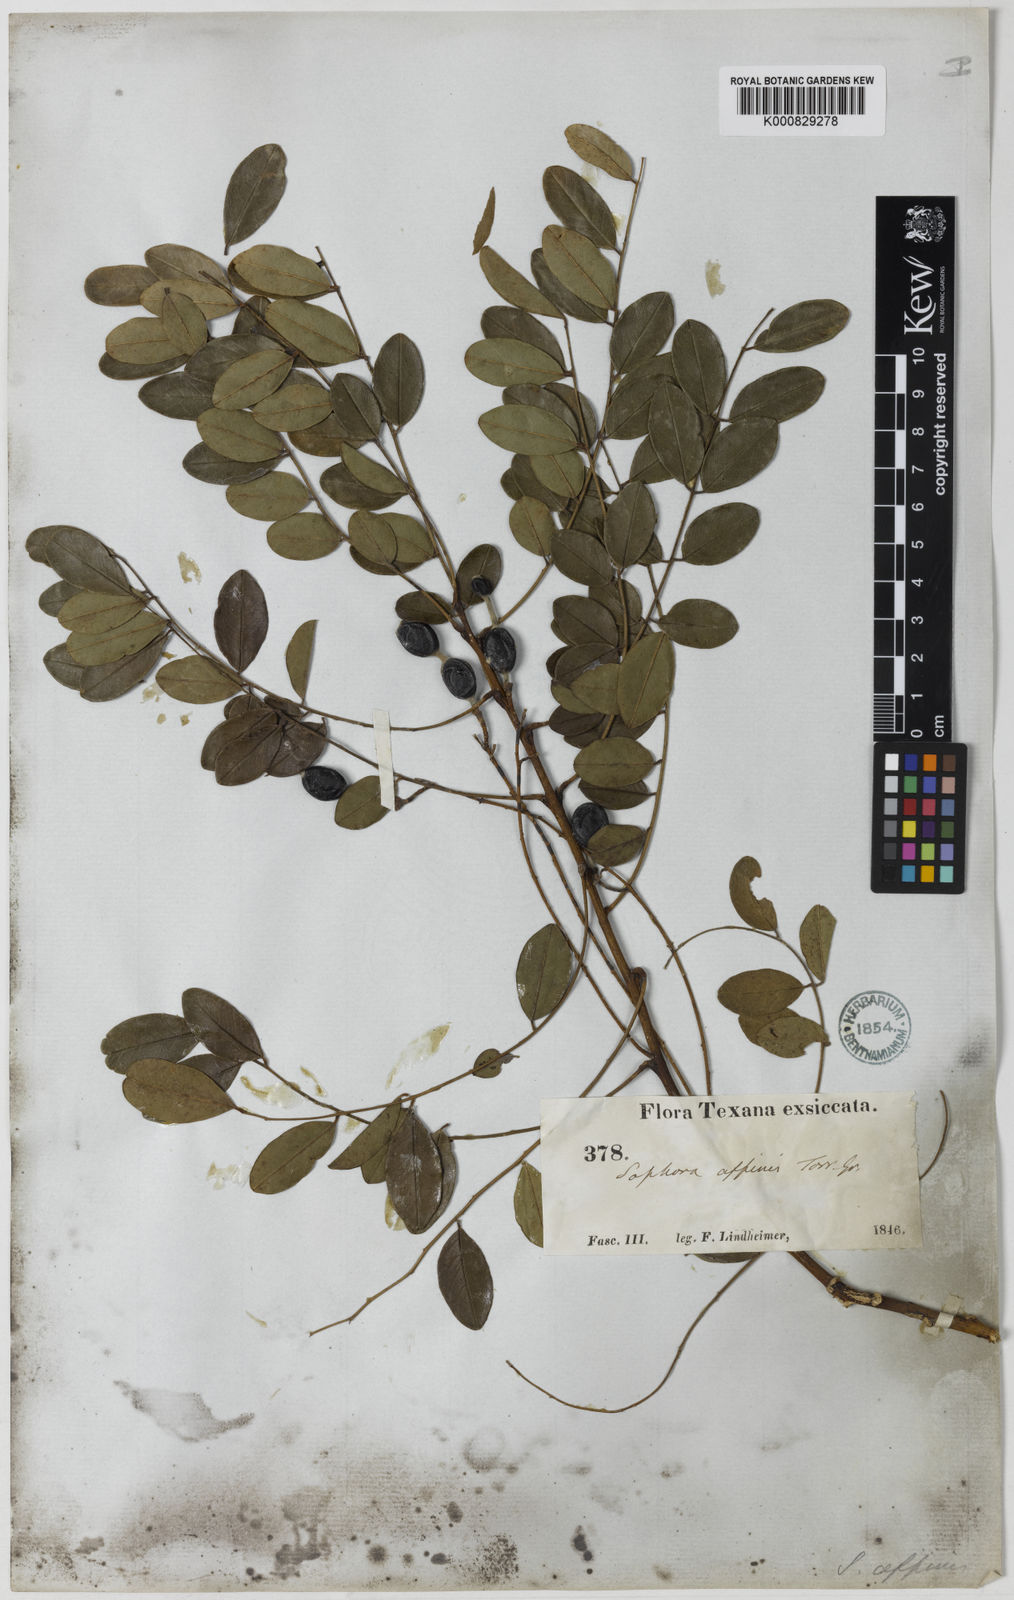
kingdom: Plantae
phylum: Tracheophyta
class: Magnoliopsida
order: Fabales
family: Fabaceae
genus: Styphnolobium
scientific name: Styphnolobium affine
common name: Texas sophora
